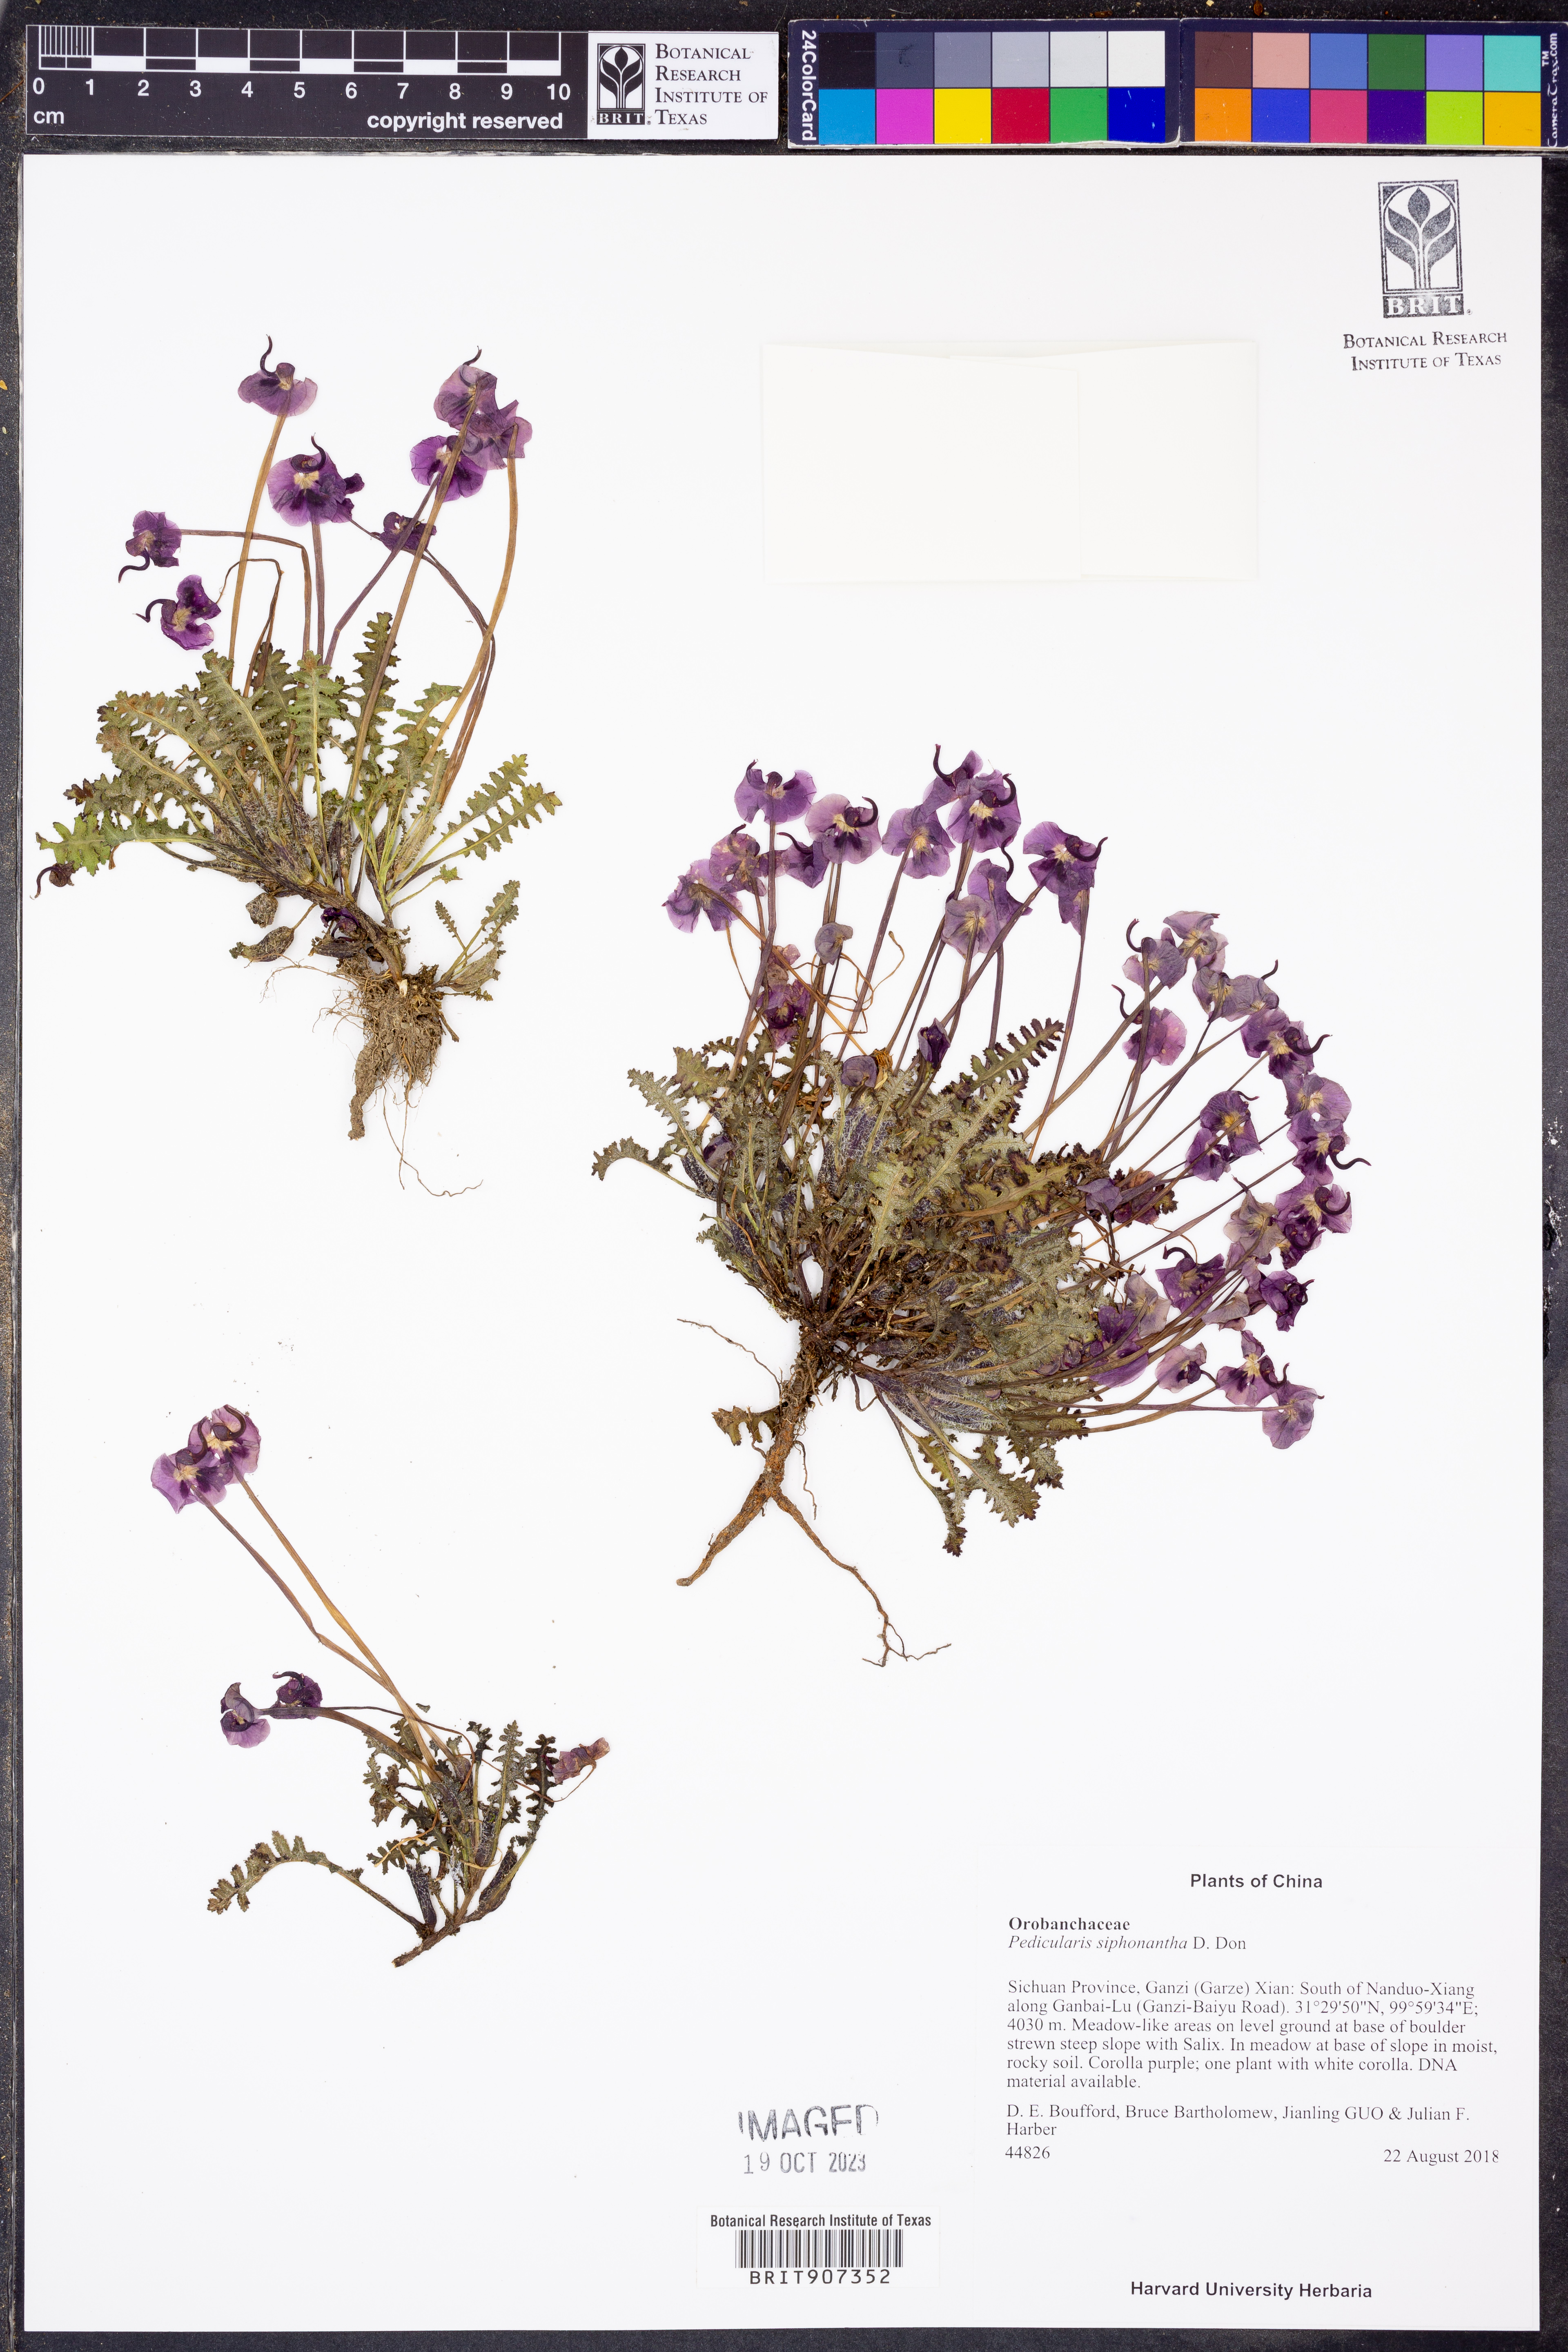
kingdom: Plantae
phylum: Tracheophyta
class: Magnoliopsida
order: Lamiales
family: Orobanchaceae
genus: Pedicularis
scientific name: Pedicularis siphonantha
